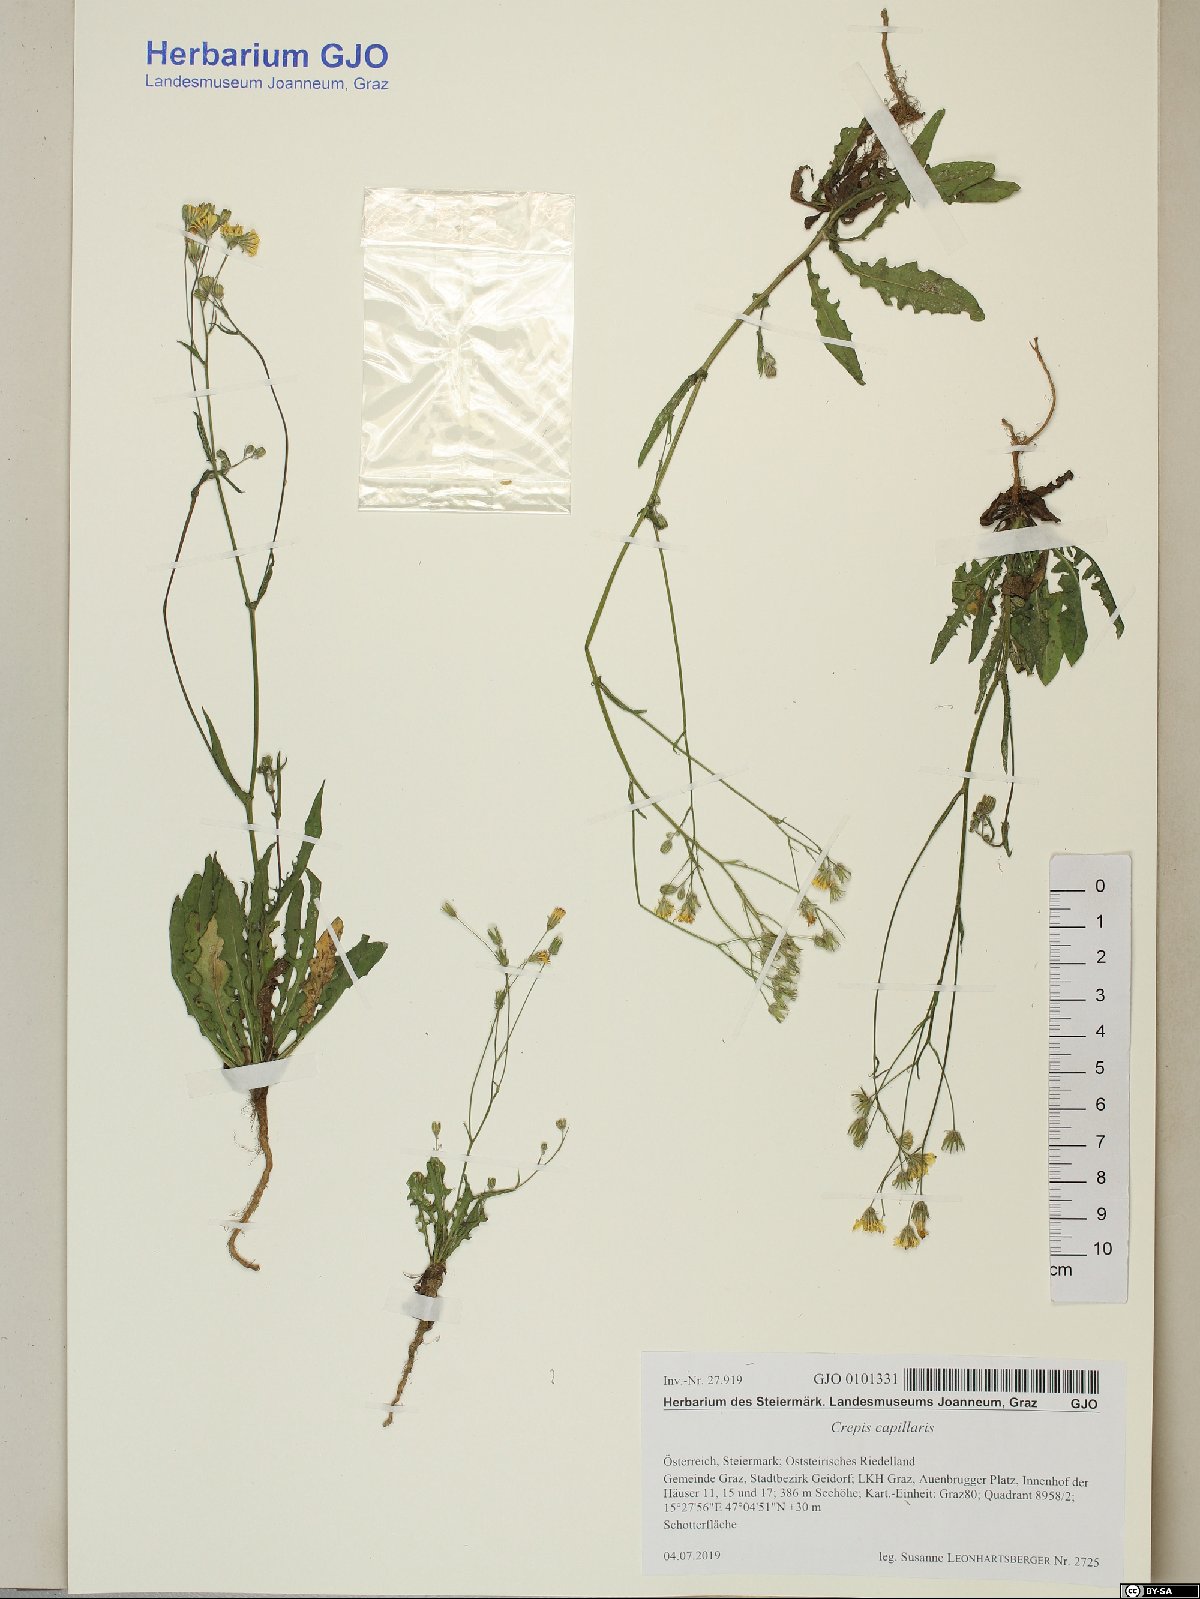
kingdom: Plantae
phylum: Tracheophyta
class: Magnoliopsida
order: Asterales
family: Asteraceae
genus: Crepis
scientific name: Crepis capillaris
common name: Smooth hawksbeard
